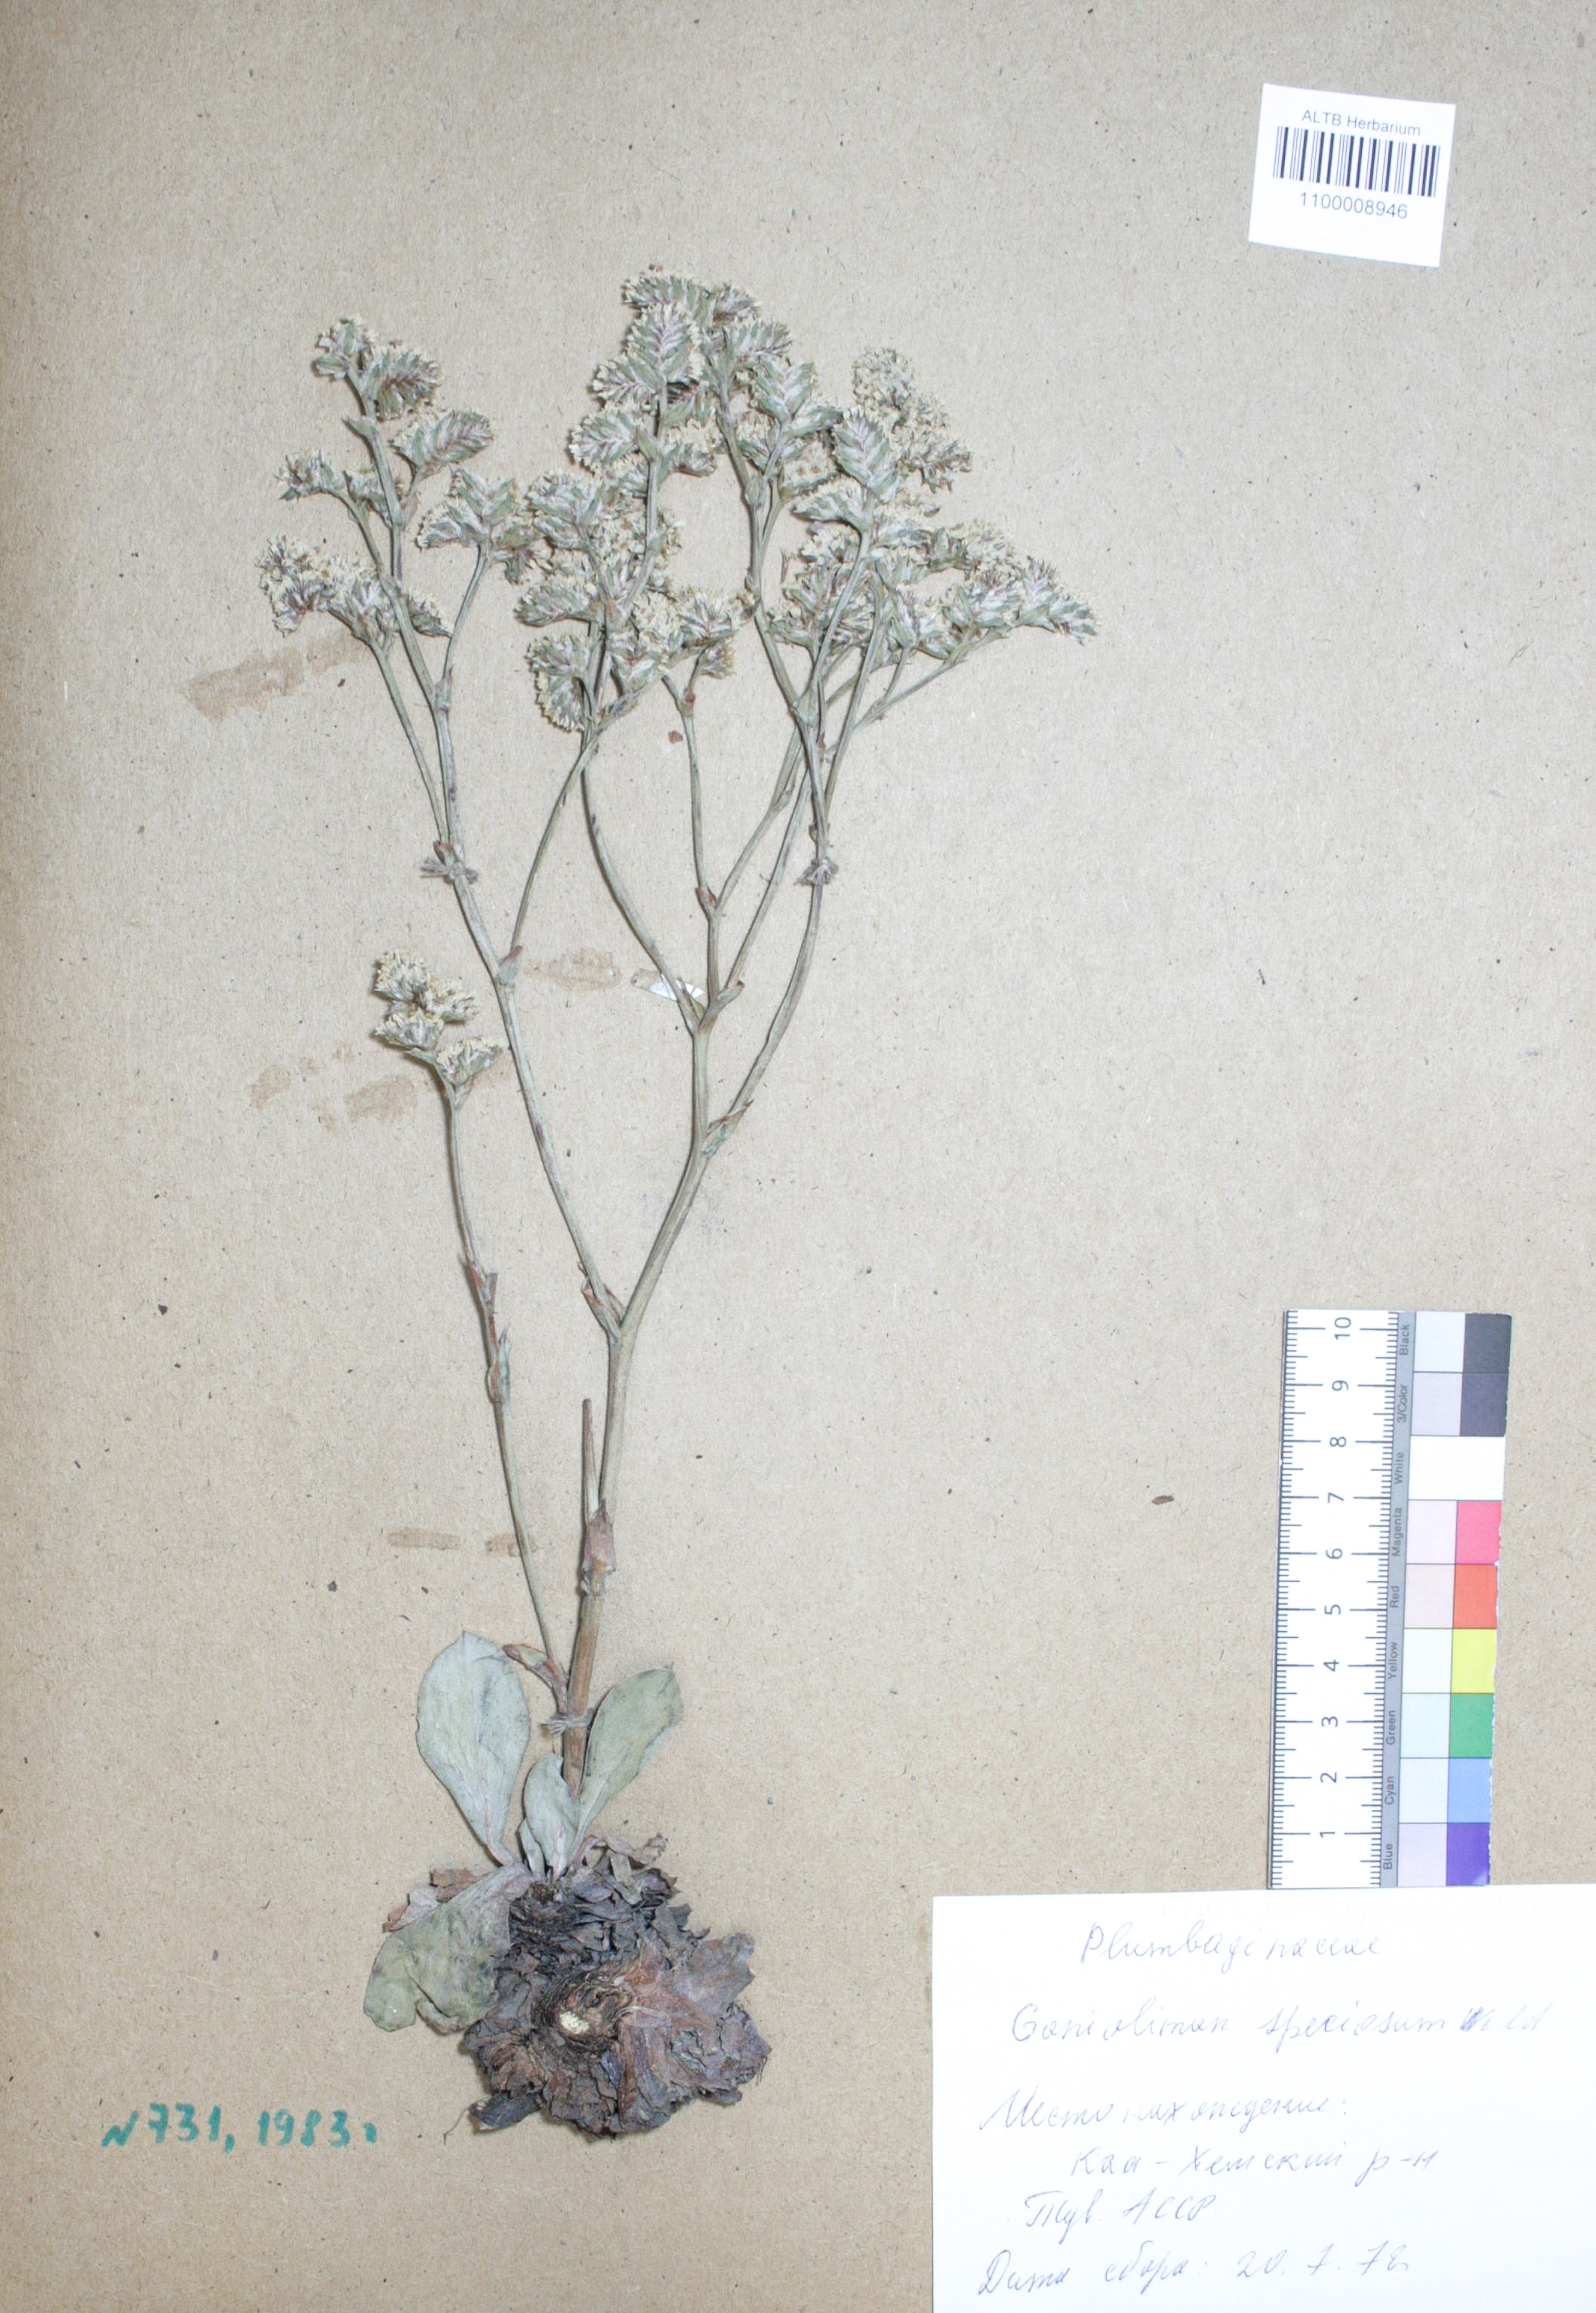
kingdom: Plantae
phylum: Tracheophyta
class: Magnoliopsida
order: Caryophyllales
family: Plumbaginaceae
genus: Goniolimon
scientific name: Goniolimon speciosum
